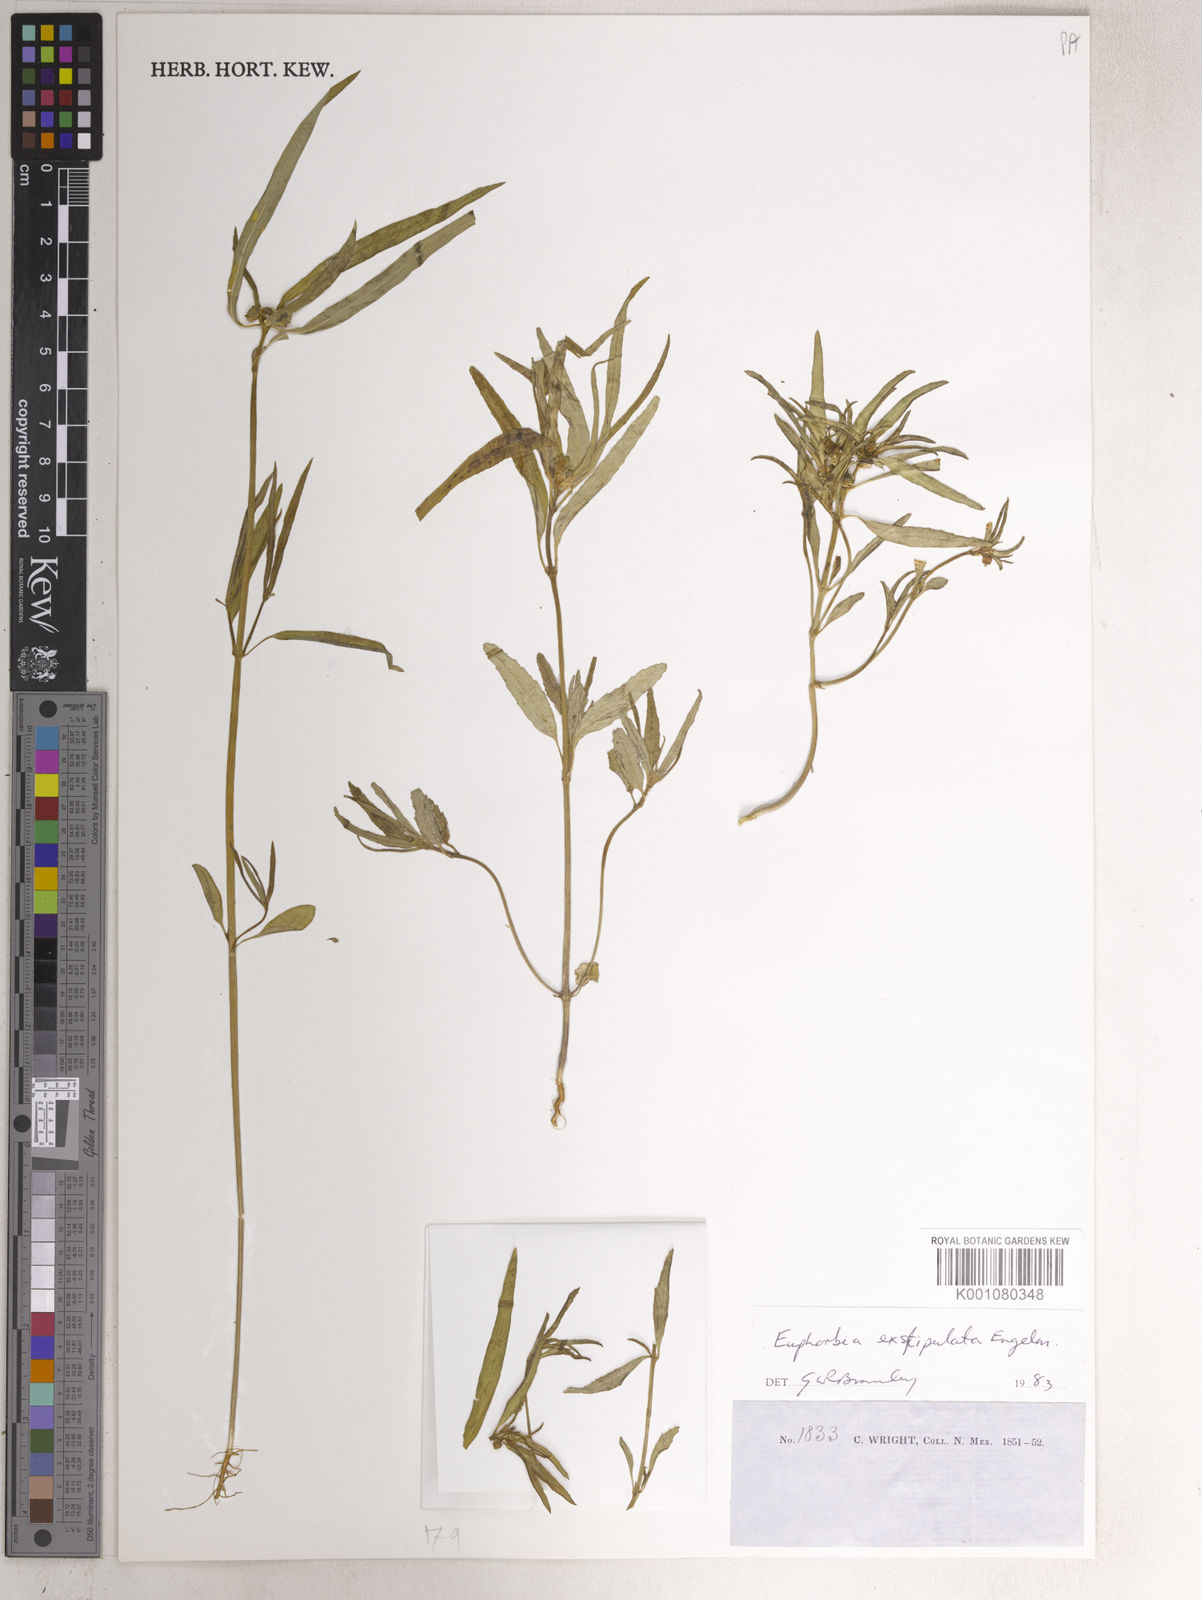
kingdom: Plantae
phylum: Tracheophyta
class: Magnoliopsida
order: Malpighiales
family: Euphorbiaceae
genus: Euphorbia
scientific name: Euphorbia exstipulata
